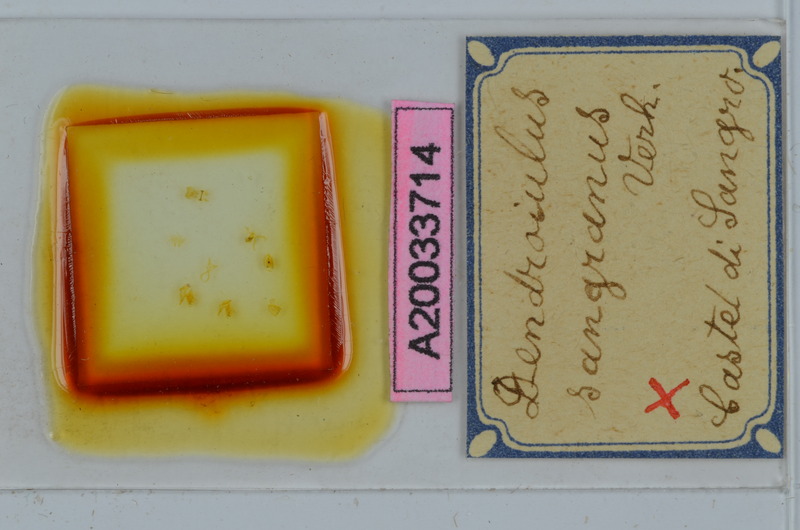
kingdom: Animalia
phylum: Arthropoda
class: Diplopoda
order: Julida
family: Julidae
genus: Cylindroiulus
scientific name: Cylindroiulus sangranus
